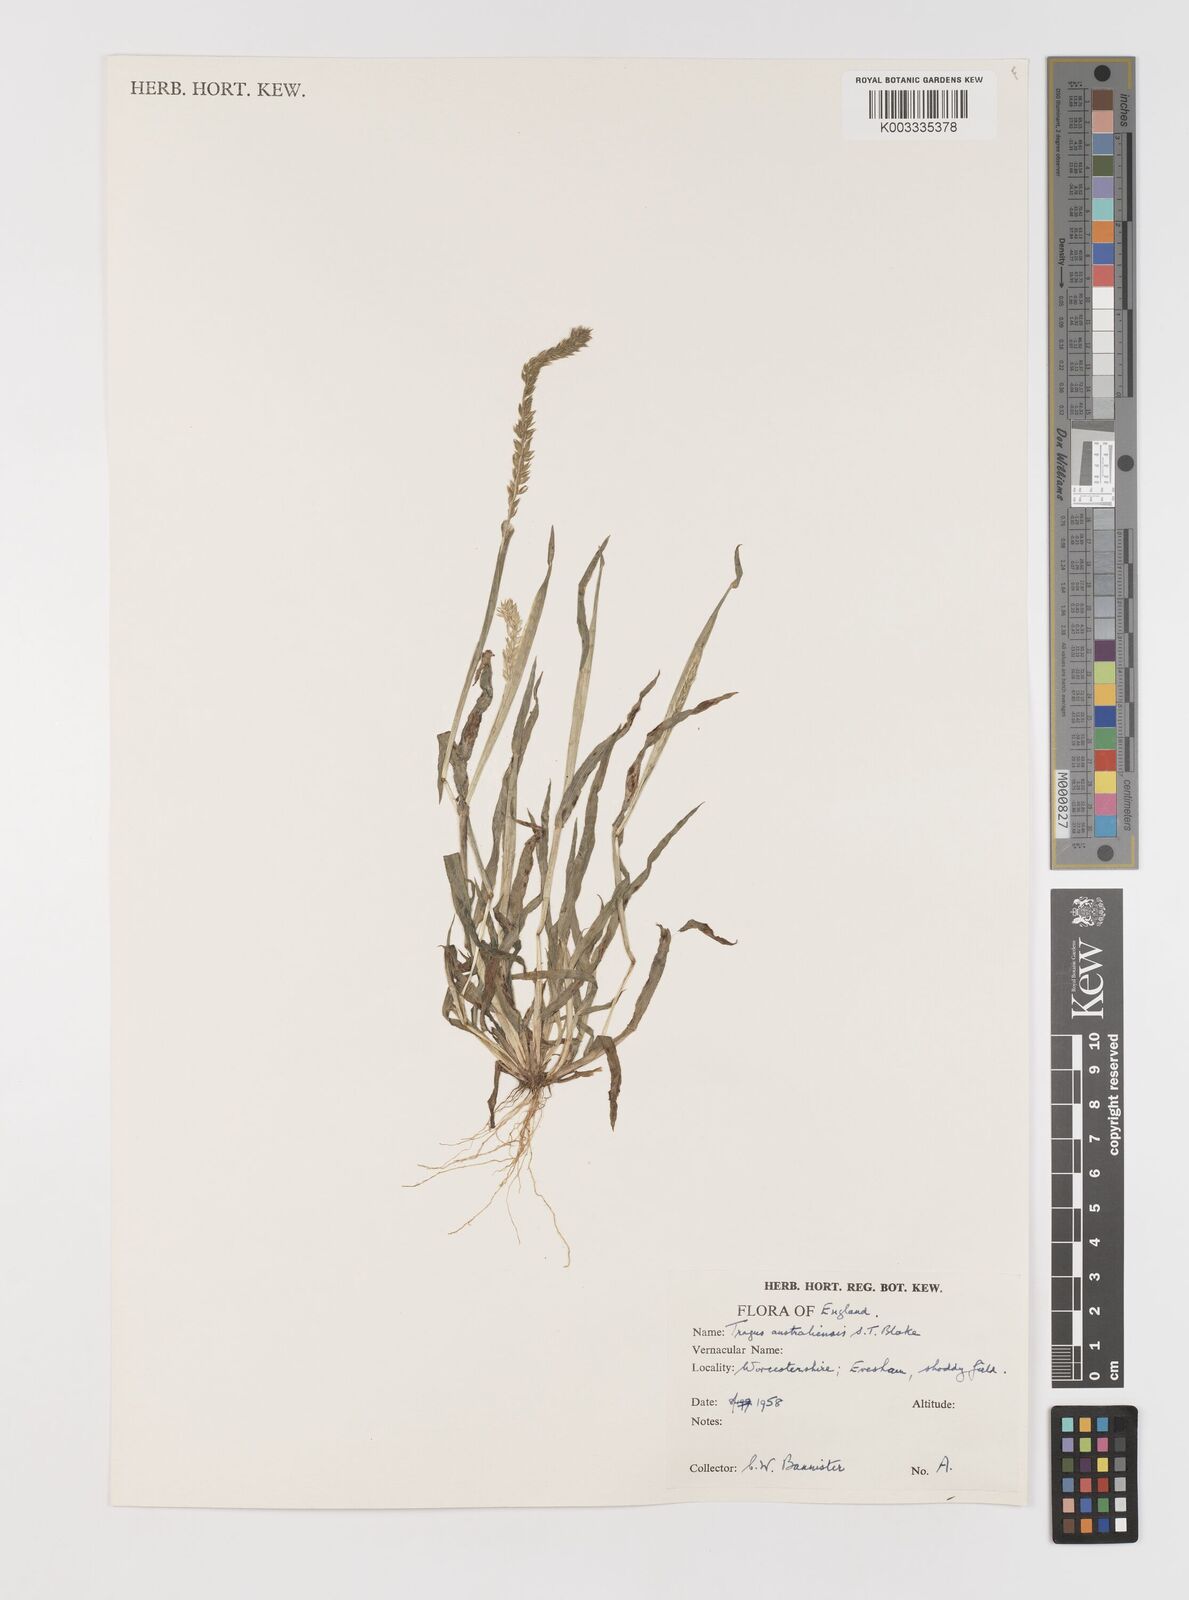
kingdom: Plantae
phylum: Tracheophyta
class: Liliopsida
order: Poales
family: Poaceae
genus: Tragus
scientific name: Tragus australianus
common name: Australian bur-grass
